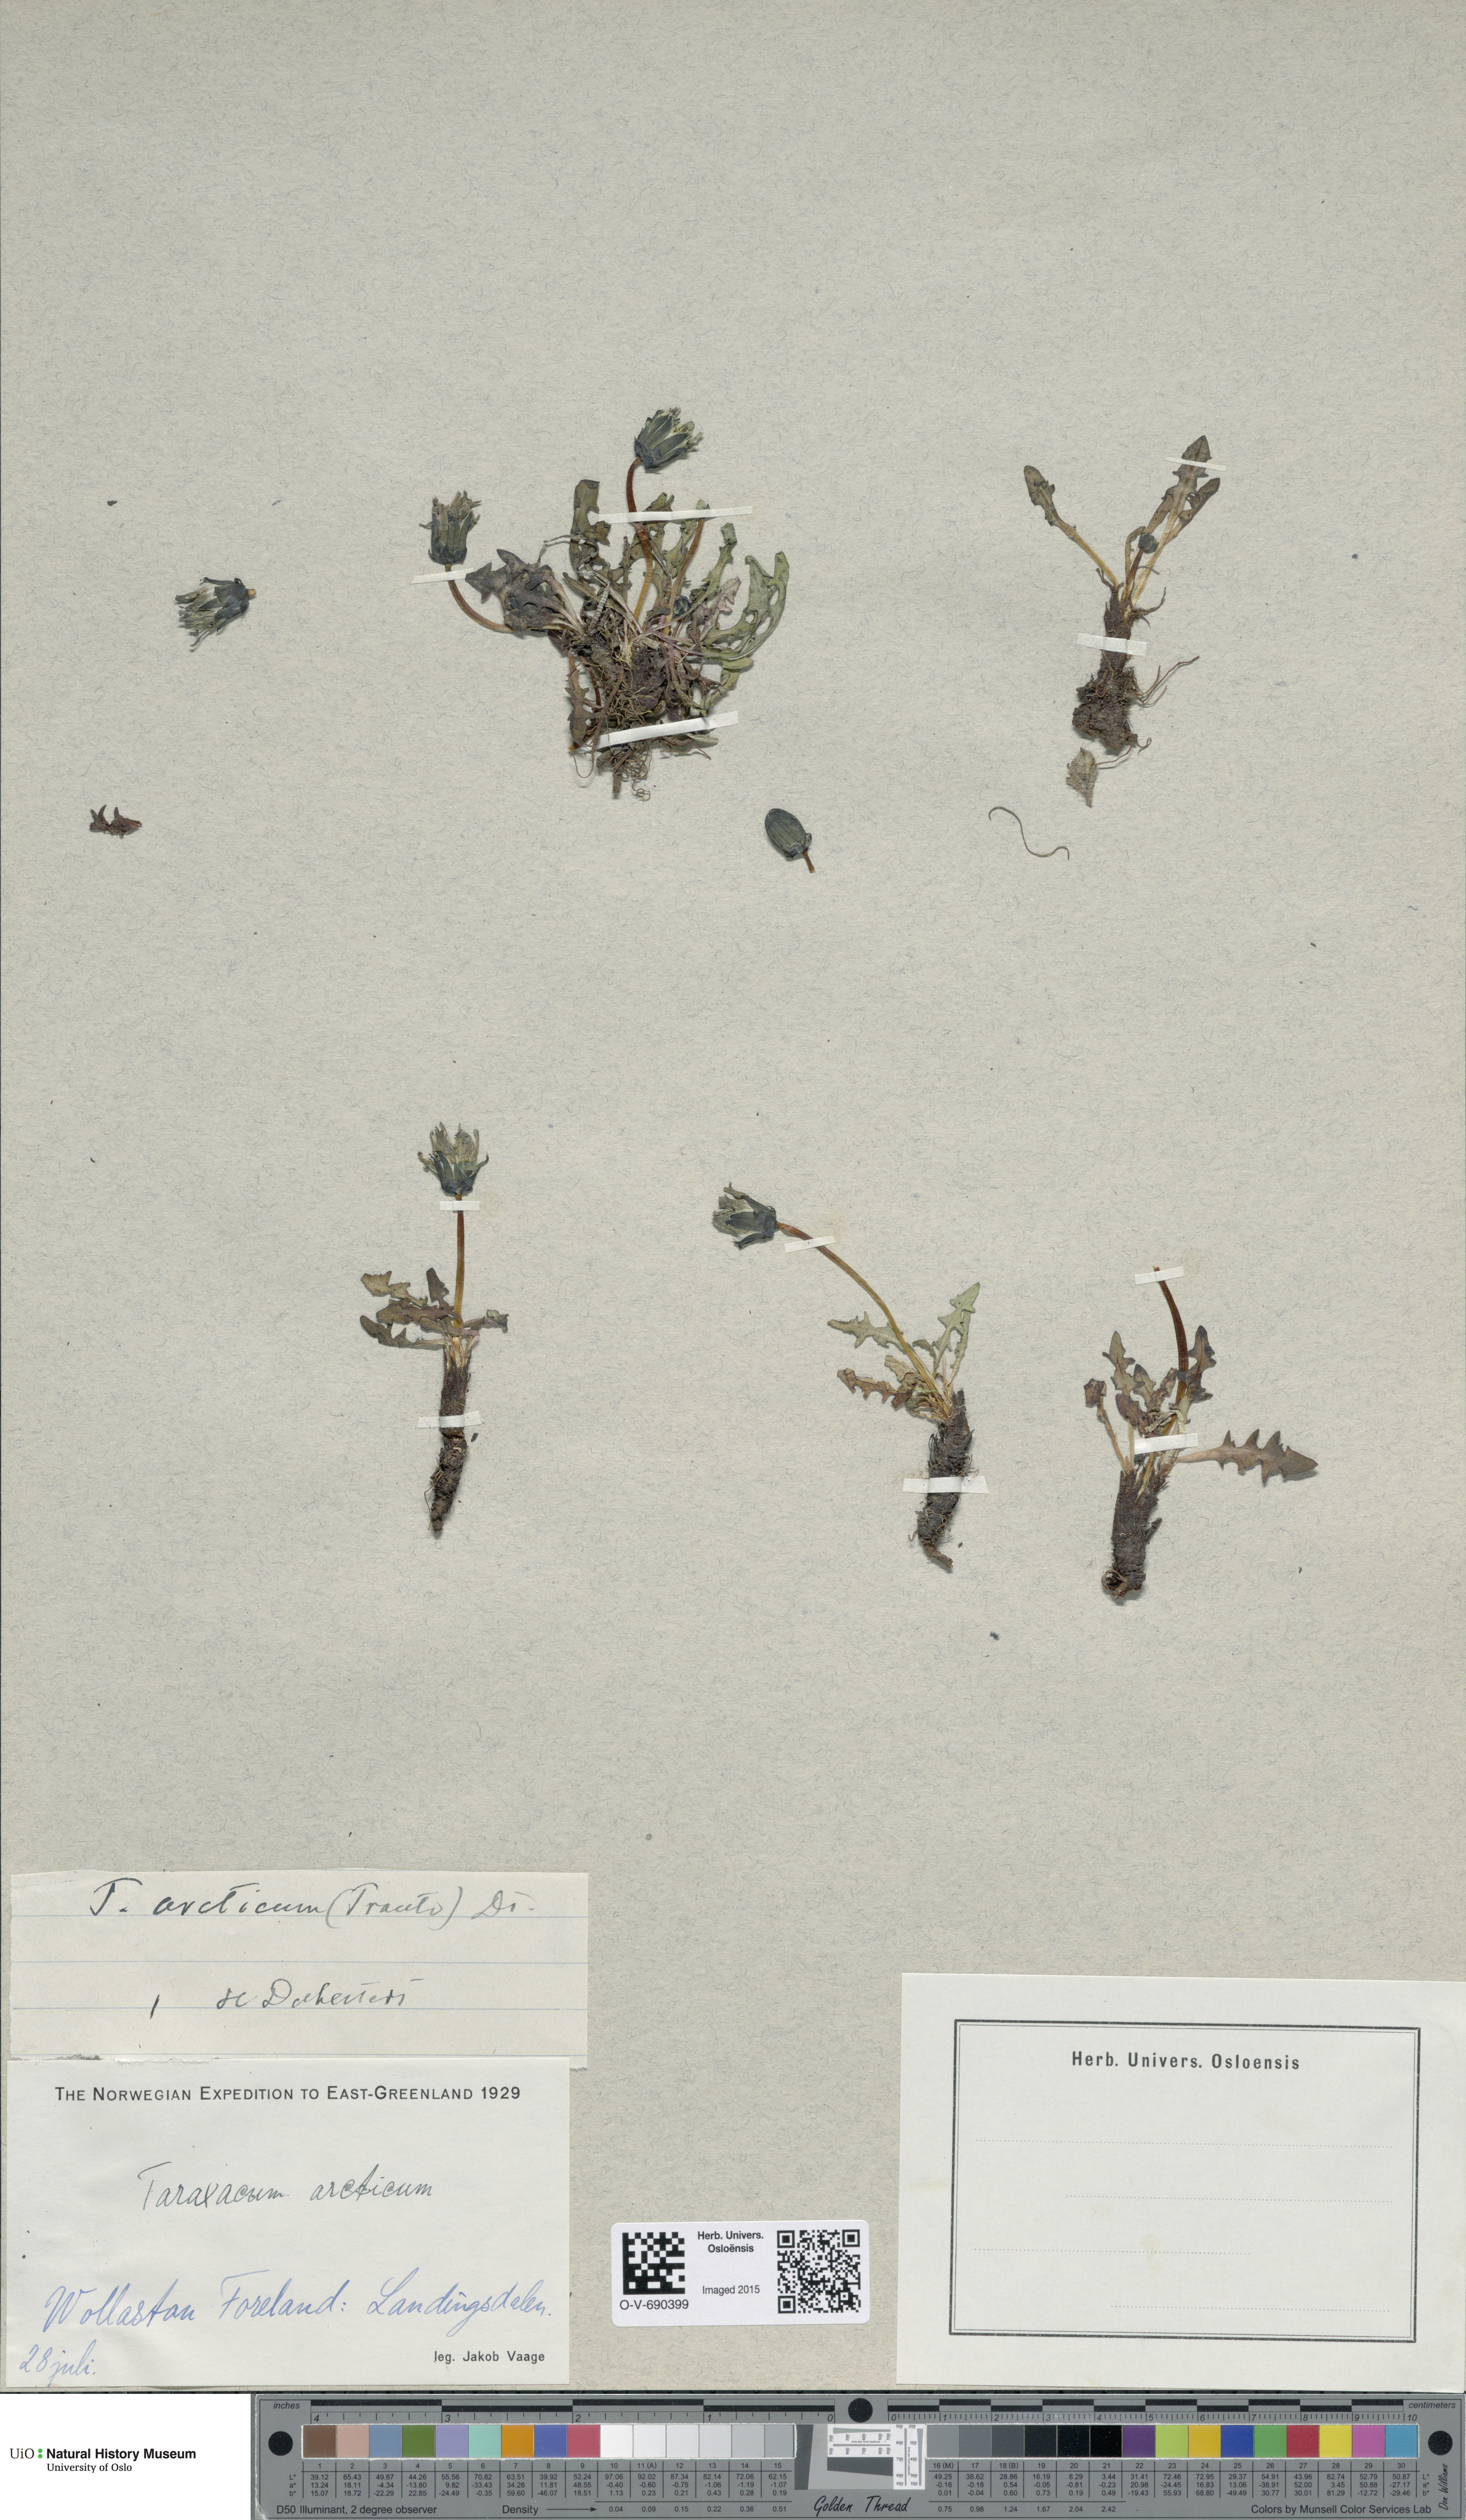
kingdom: Plantae
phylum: Tracheophyta
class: Magnoliopsida
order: Asterales
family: Asteraceae
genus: Taraxacum
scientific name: Taraxacum arcticum
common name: Arctic dandelion
